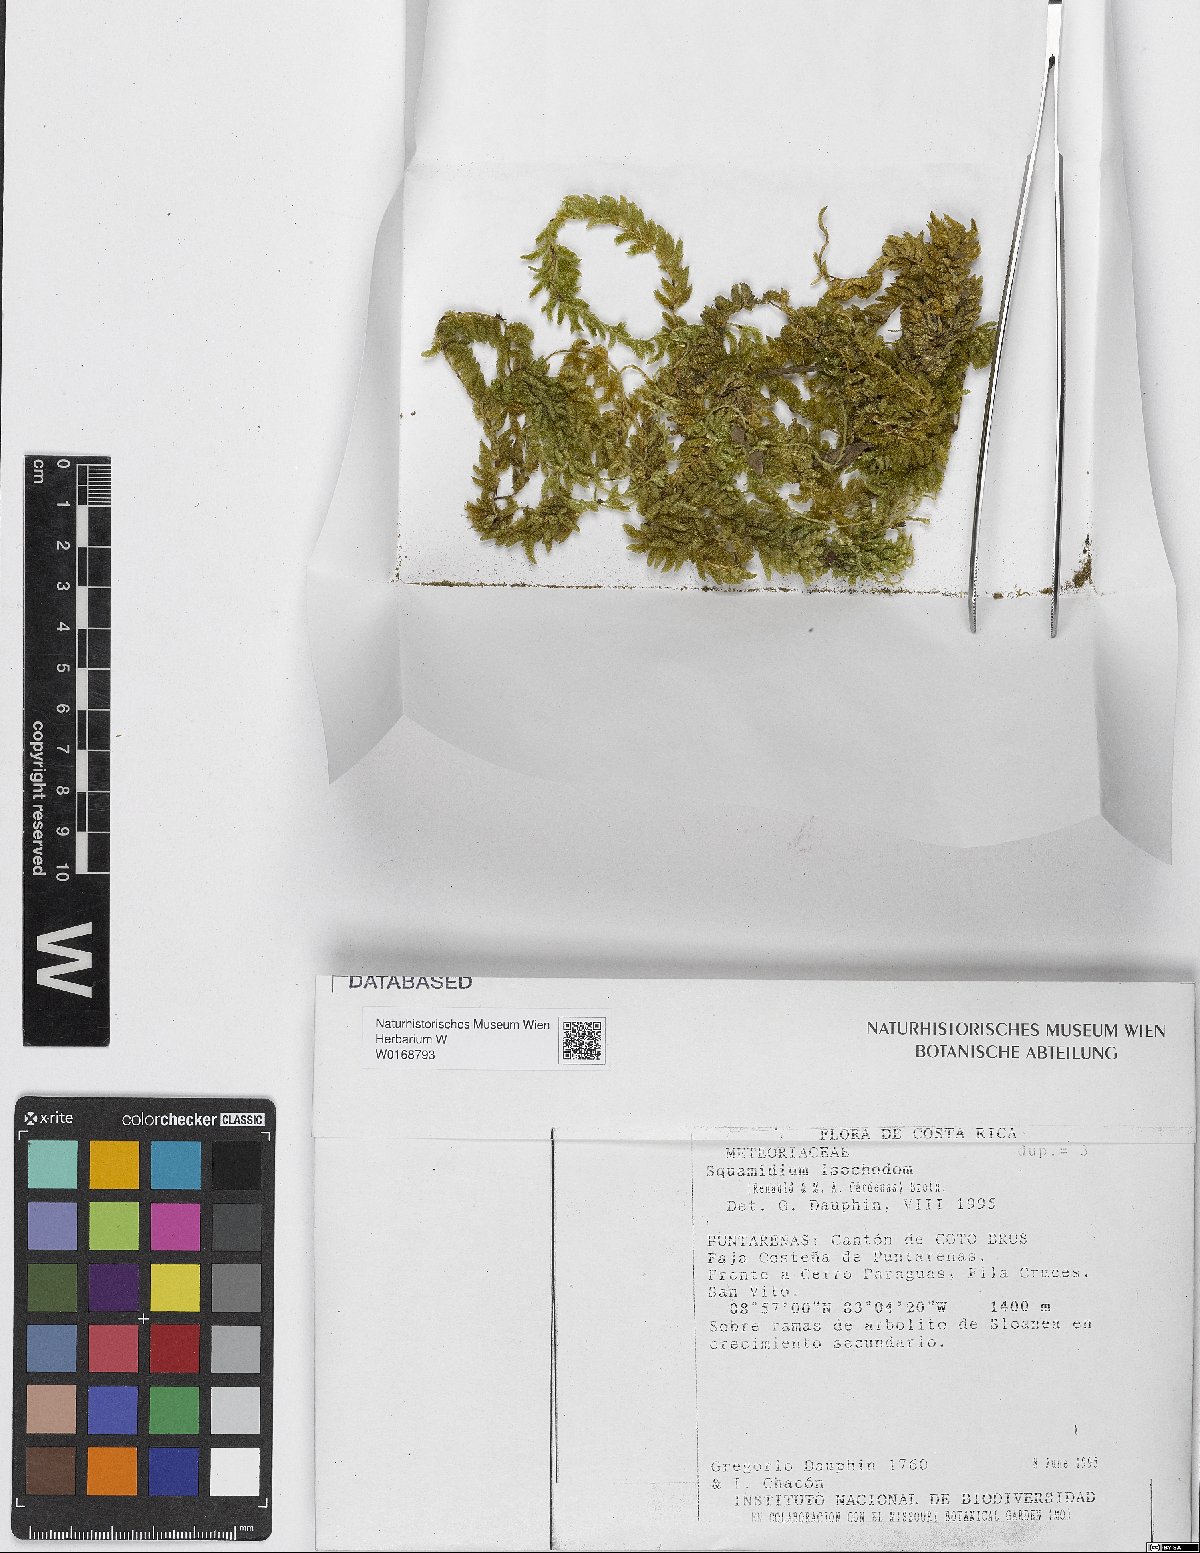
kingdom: Plantae
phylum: Bryophyta
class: Bryopsida
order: Hypnales
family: Brachytheciaceae
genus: Squamidium
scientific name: Squamidium leucotrichum
